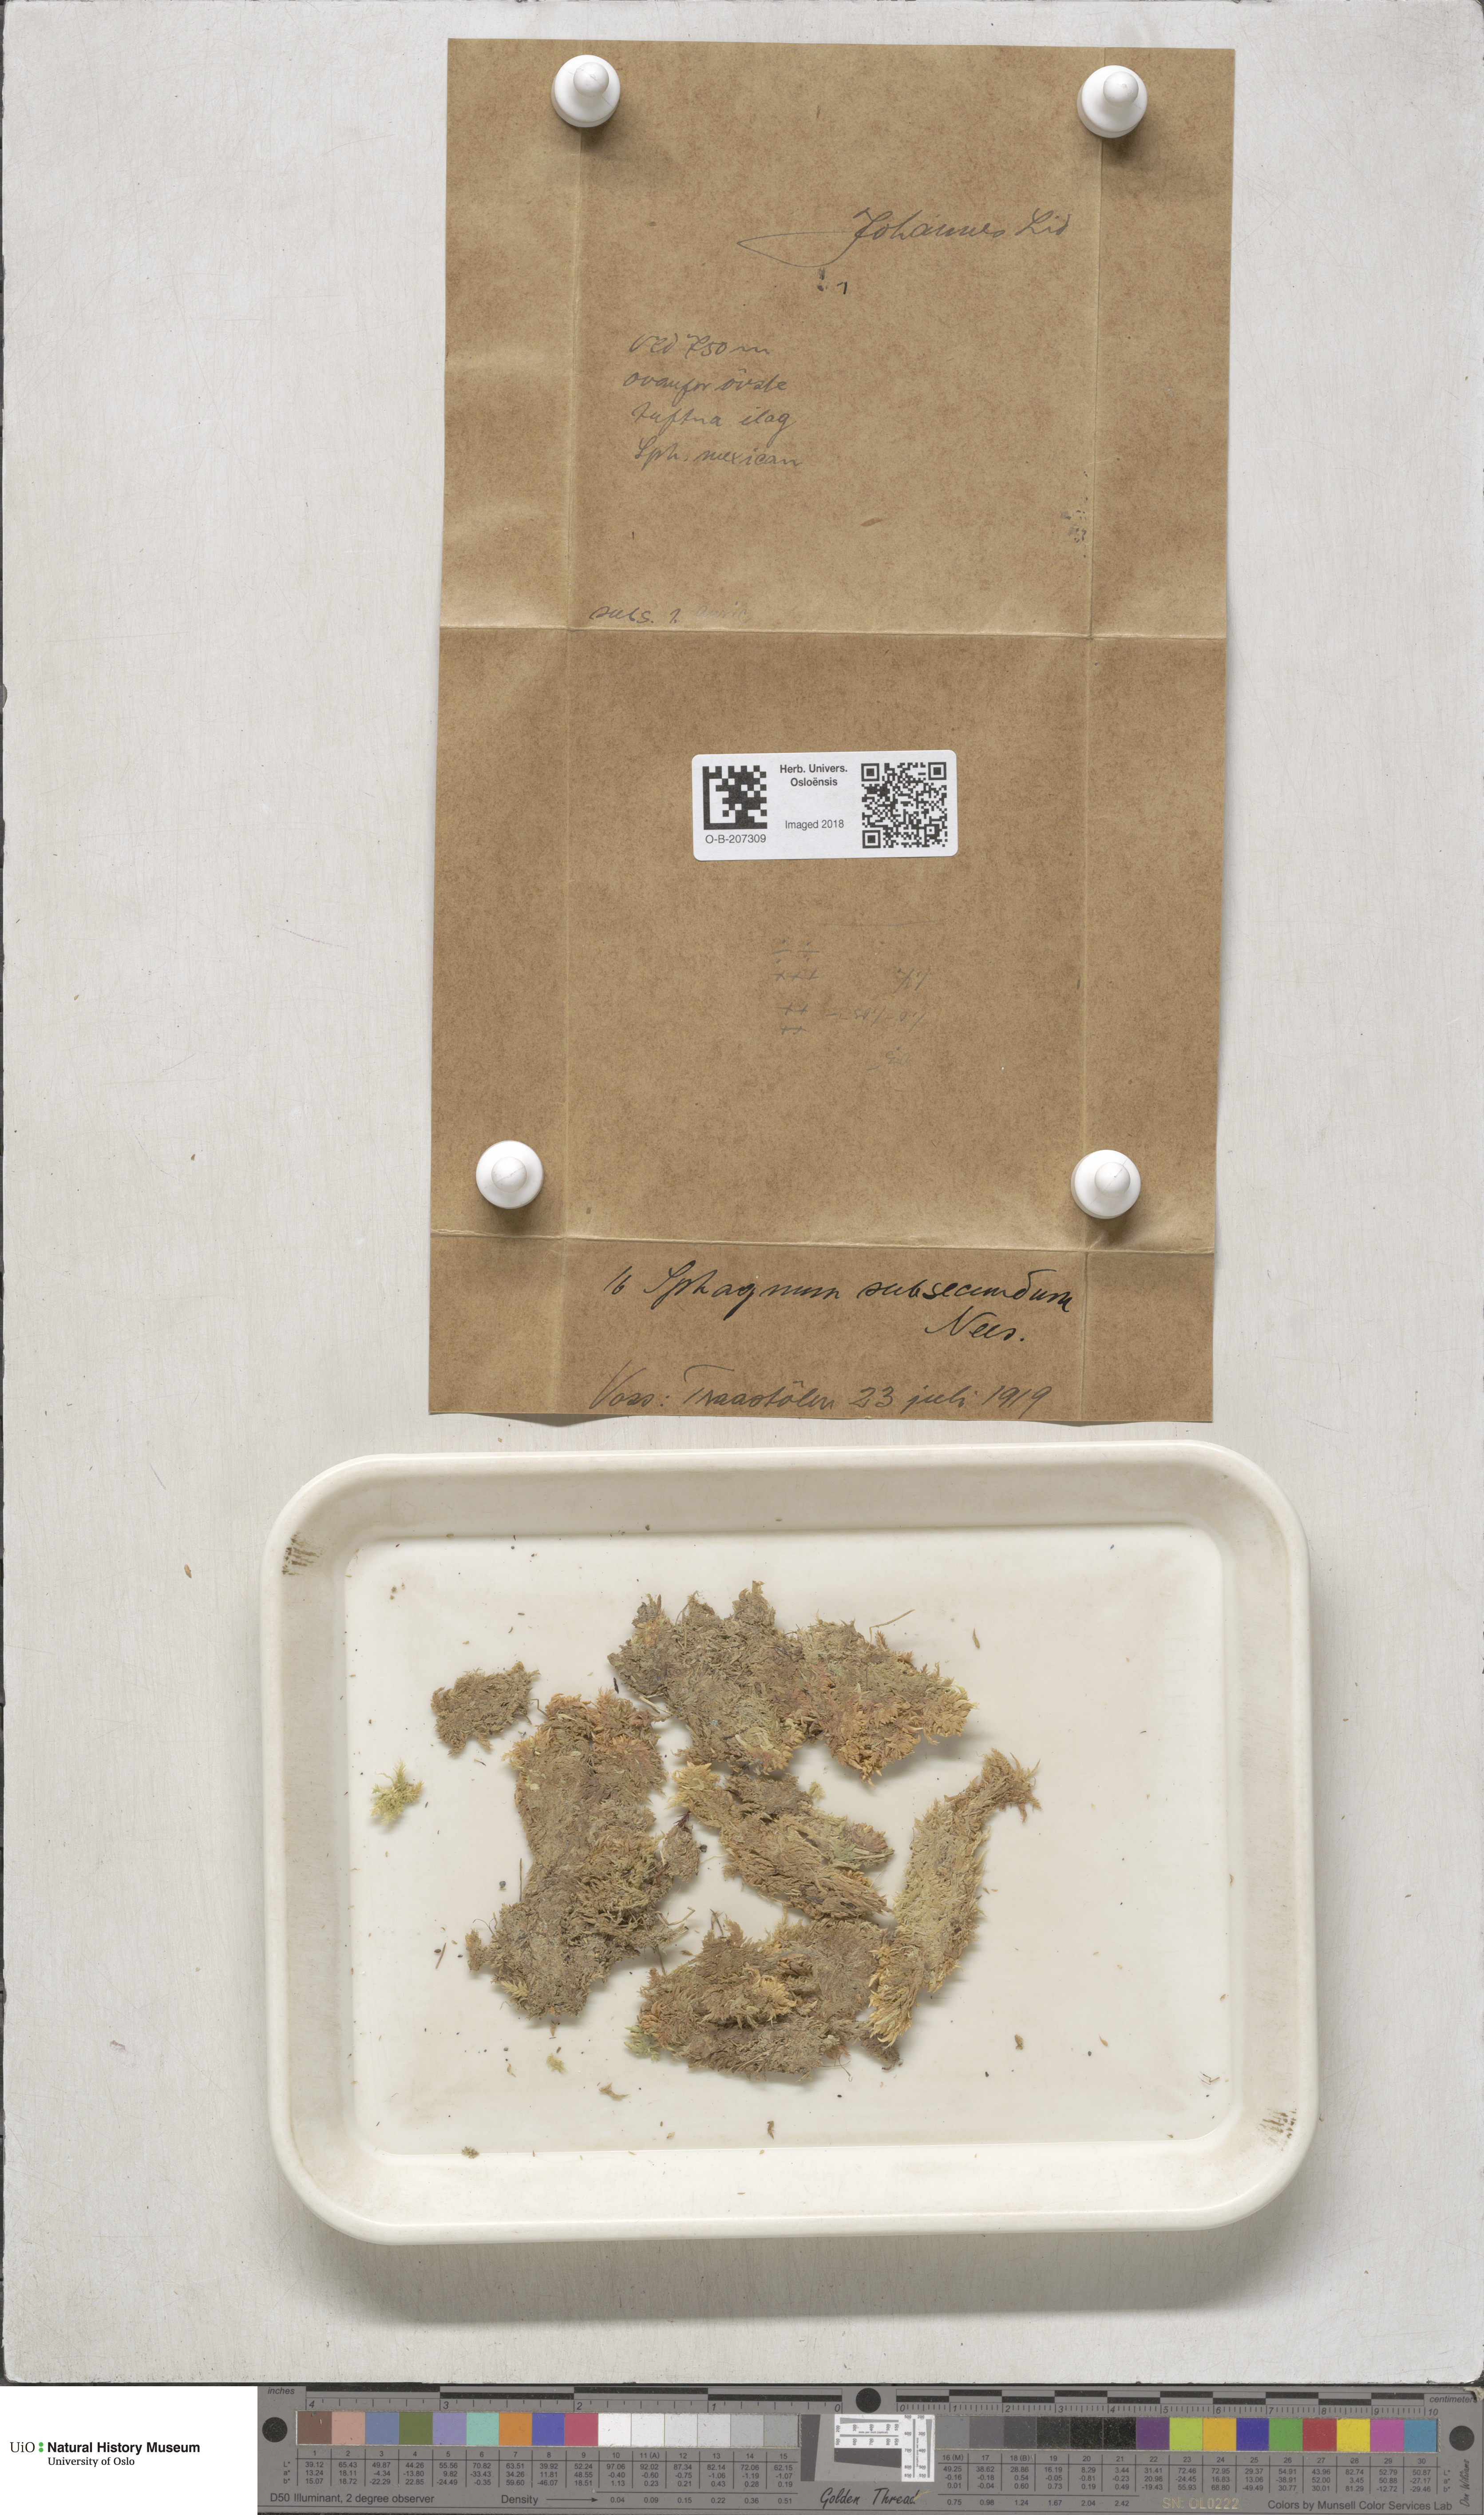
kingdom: Plantae
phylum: Bryophyta
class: Sphagnopsida
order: Sphagnales
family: Sphagnaceae
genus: Sphagnum
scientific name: Sphagnum subsecundum
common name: Orange peat moss
